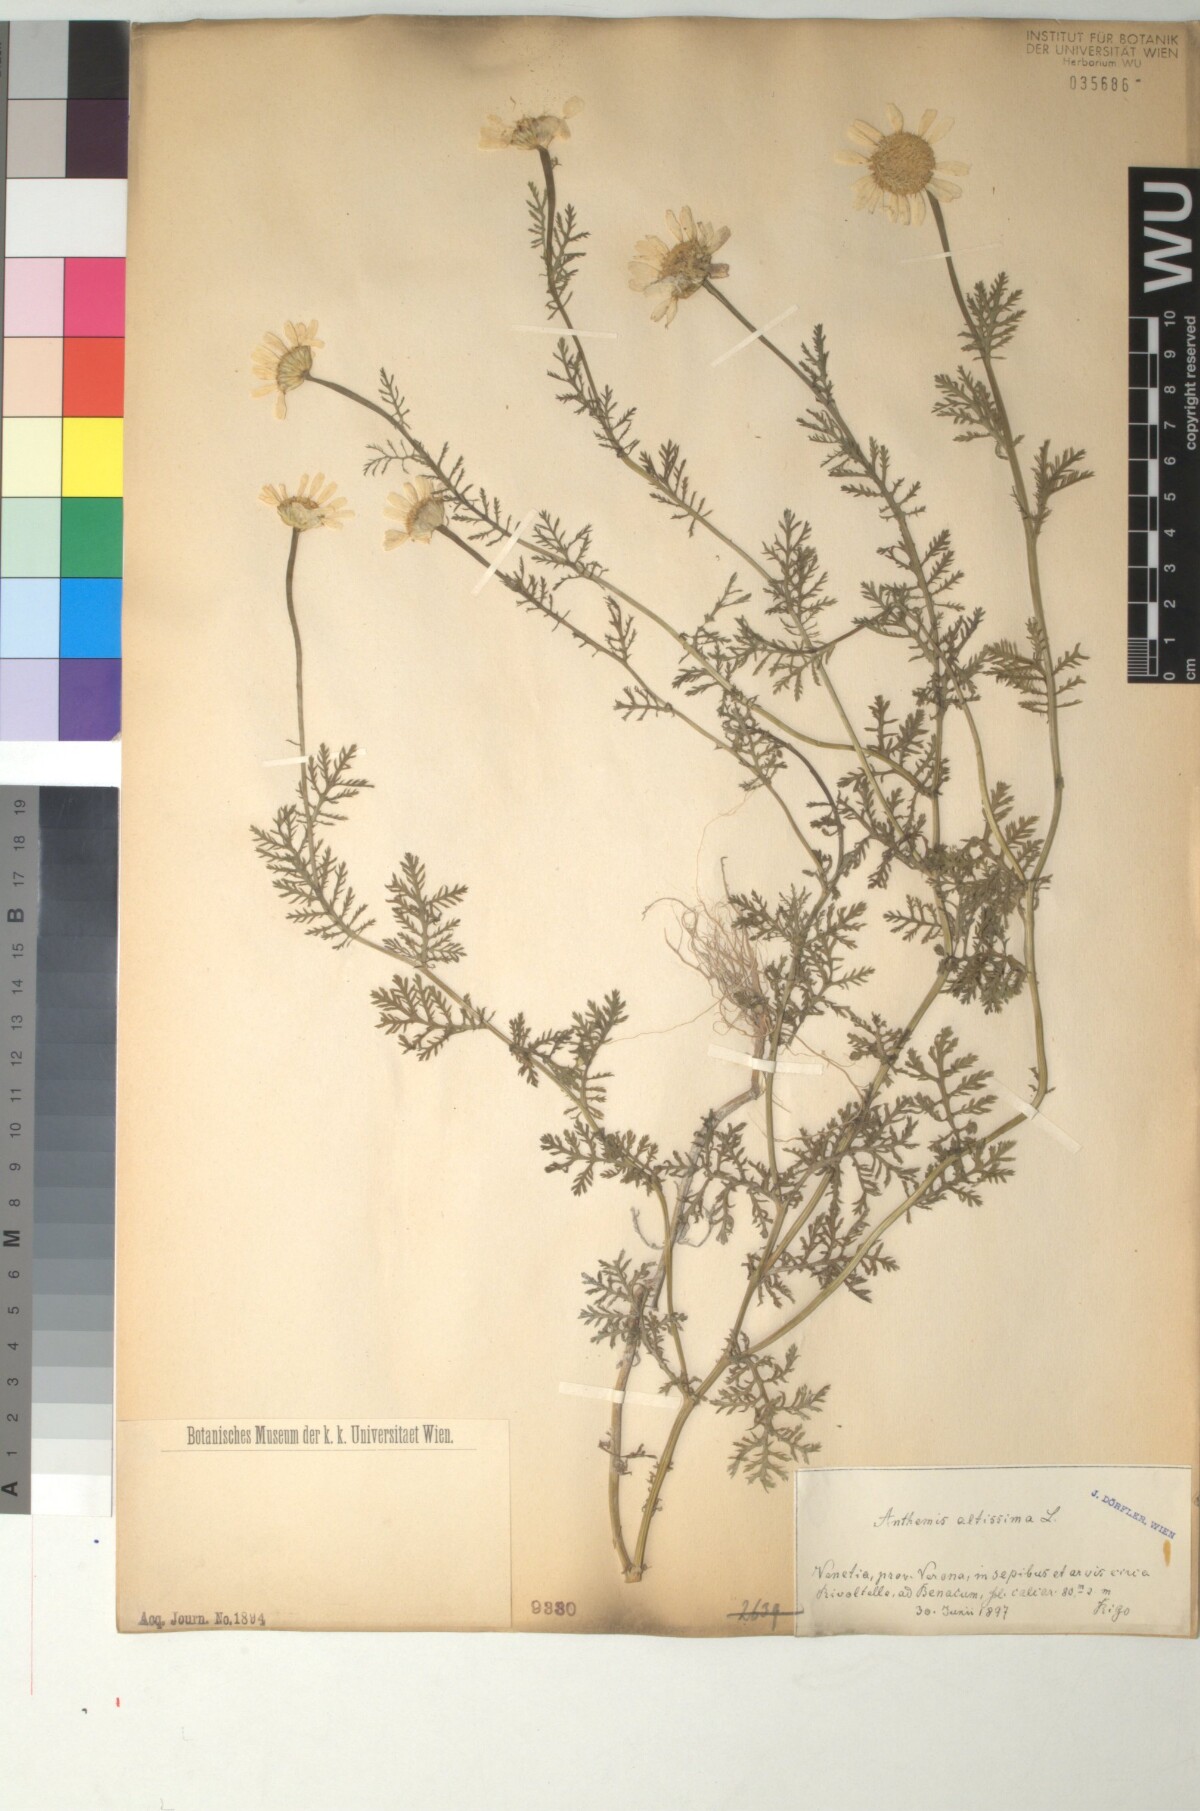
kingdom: Plantae
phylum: Tracheophyta
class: Magnoliopsida
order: Asterales
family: Asteraceae
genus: Cota
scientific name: Cota altissima
